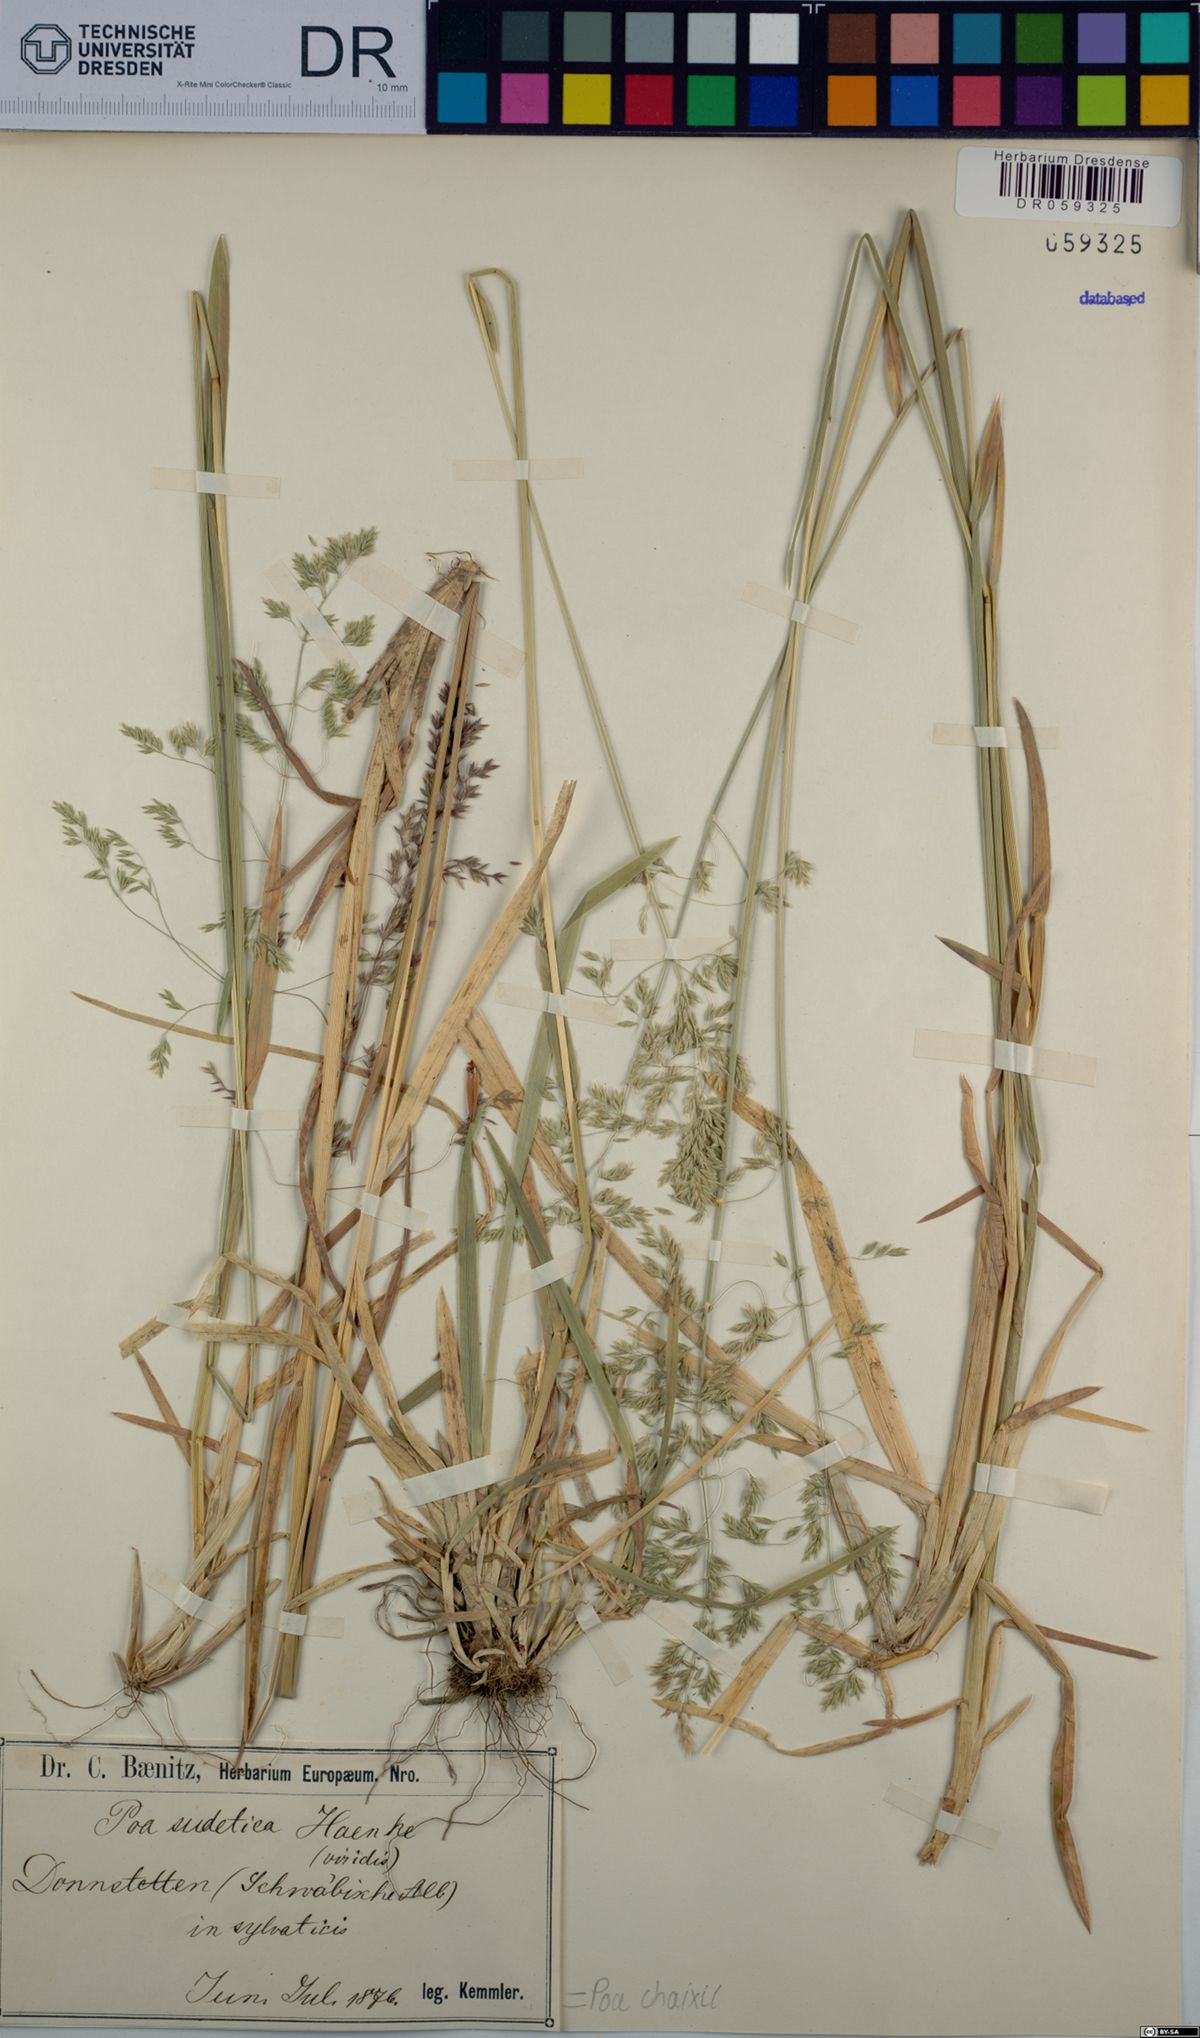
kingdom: Plantae
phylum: Tracheophyta
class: Liliopsida
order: Poales
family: Poaceae
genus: Poa
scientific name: Poa chaixii
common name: Broad-leaved meadow-grass
